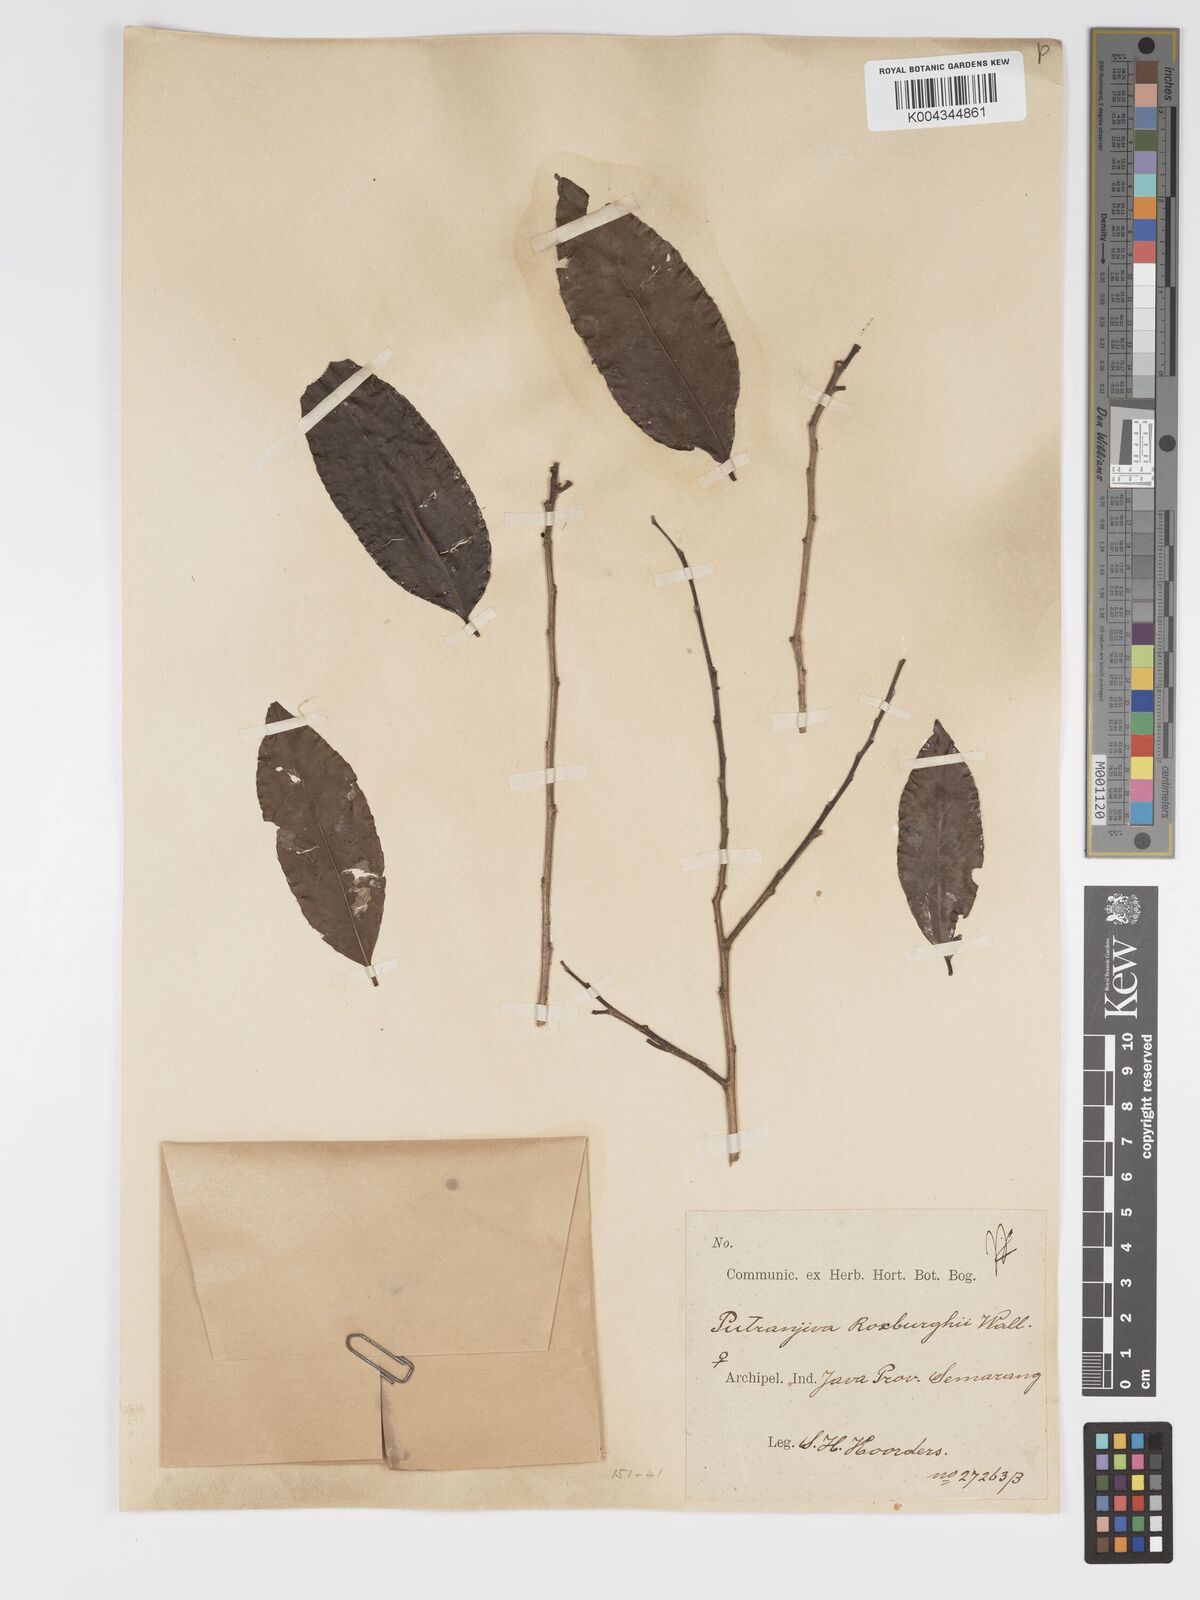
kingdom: Plantae
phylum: Tracheophyta
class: Magnoliopsida
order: Malpighiales
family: Putranjivaceae
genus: Putranjiva
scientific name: Putranjiva roxburghii
